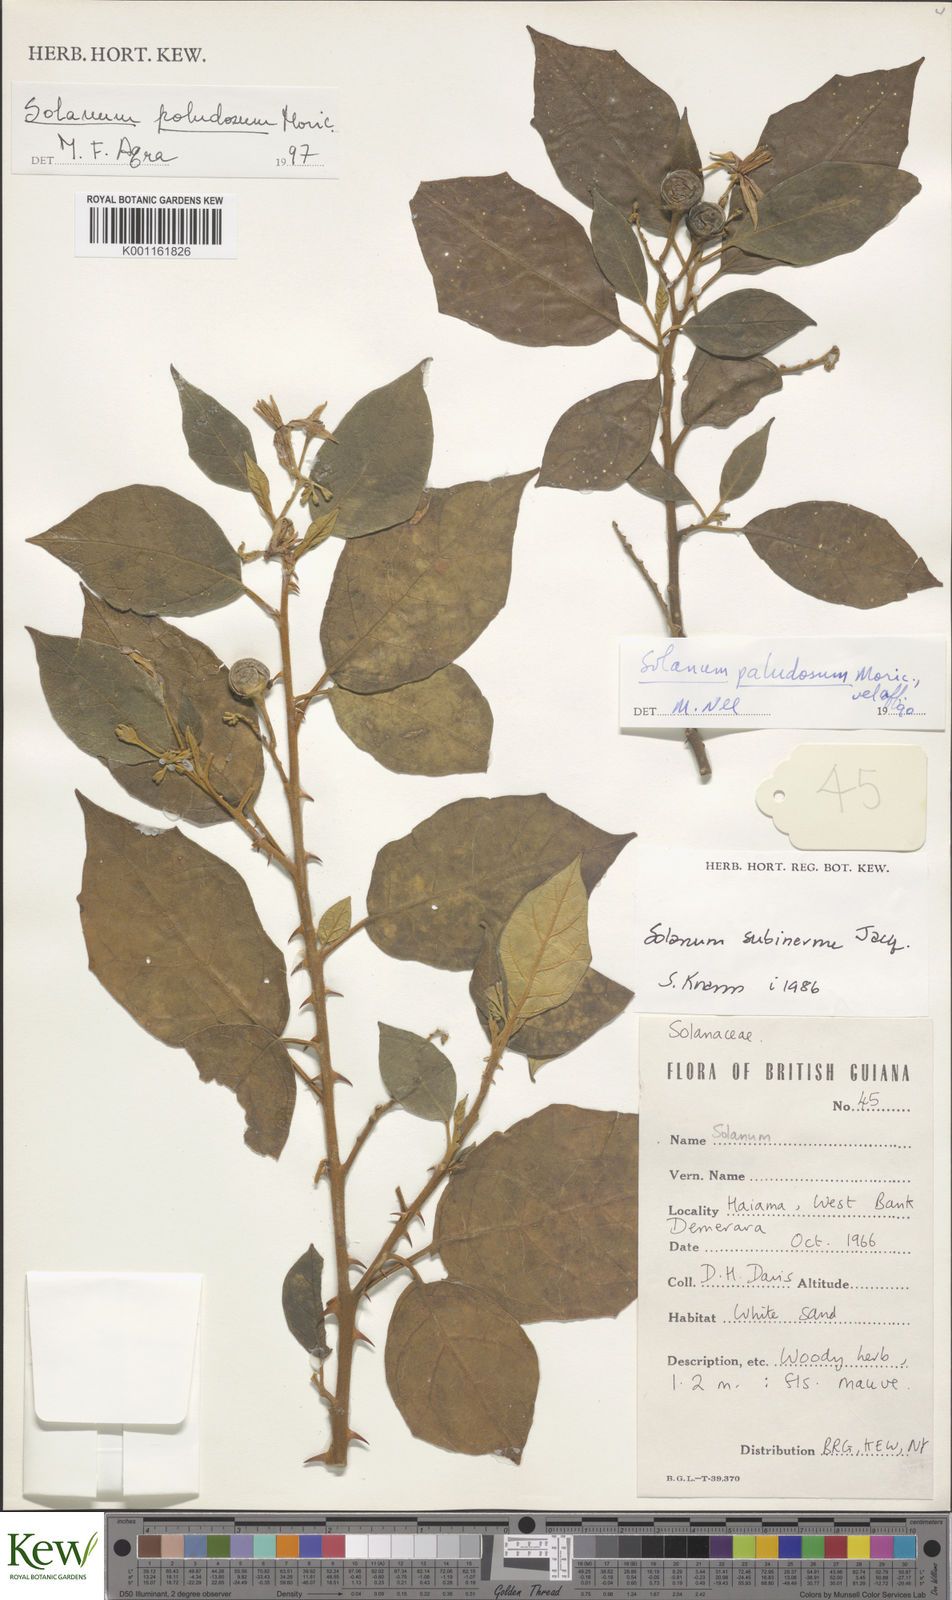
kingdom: Plantae
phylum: Tracheophyta
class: Magnoliopsida
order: Solanales
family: Solanaceae
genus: Solanum
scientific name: Solanum paludosum
